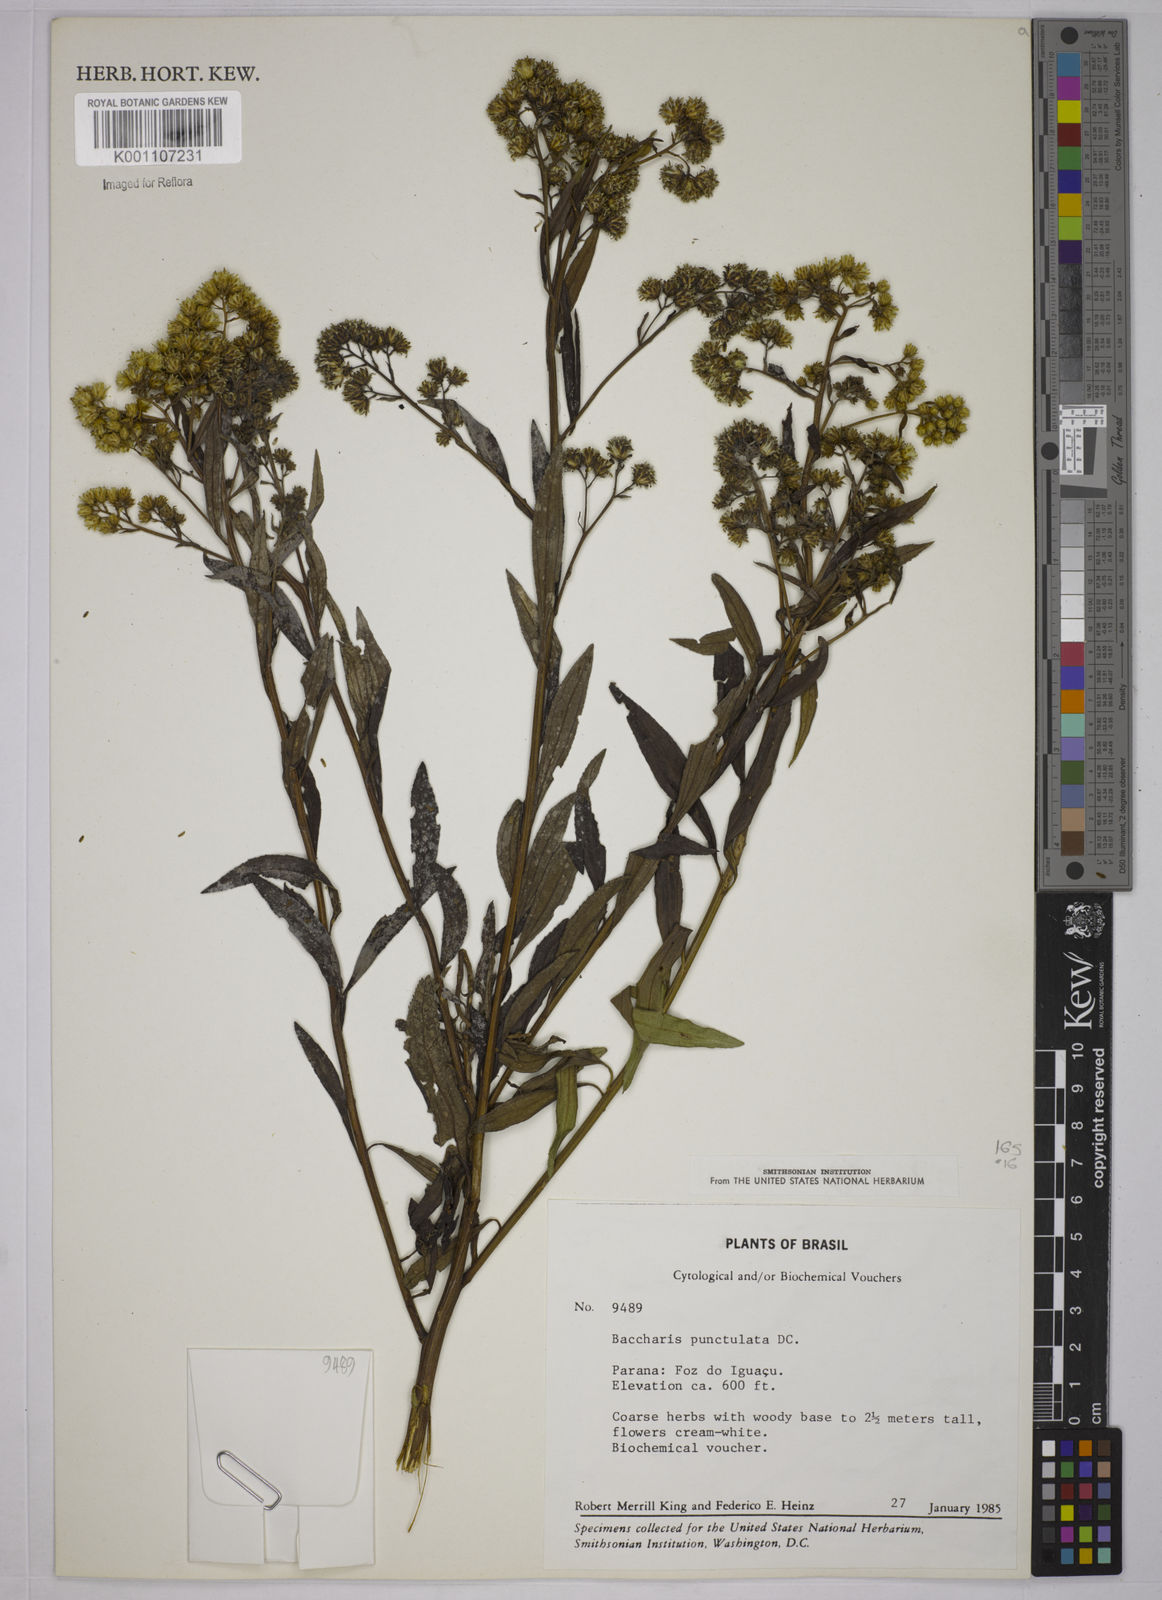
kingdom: Plantae
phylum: Tracheophyta
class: Magnoliopsida
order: Asterales
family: Asteraceae
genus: Baccharis
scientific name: Baccharis punctulata
